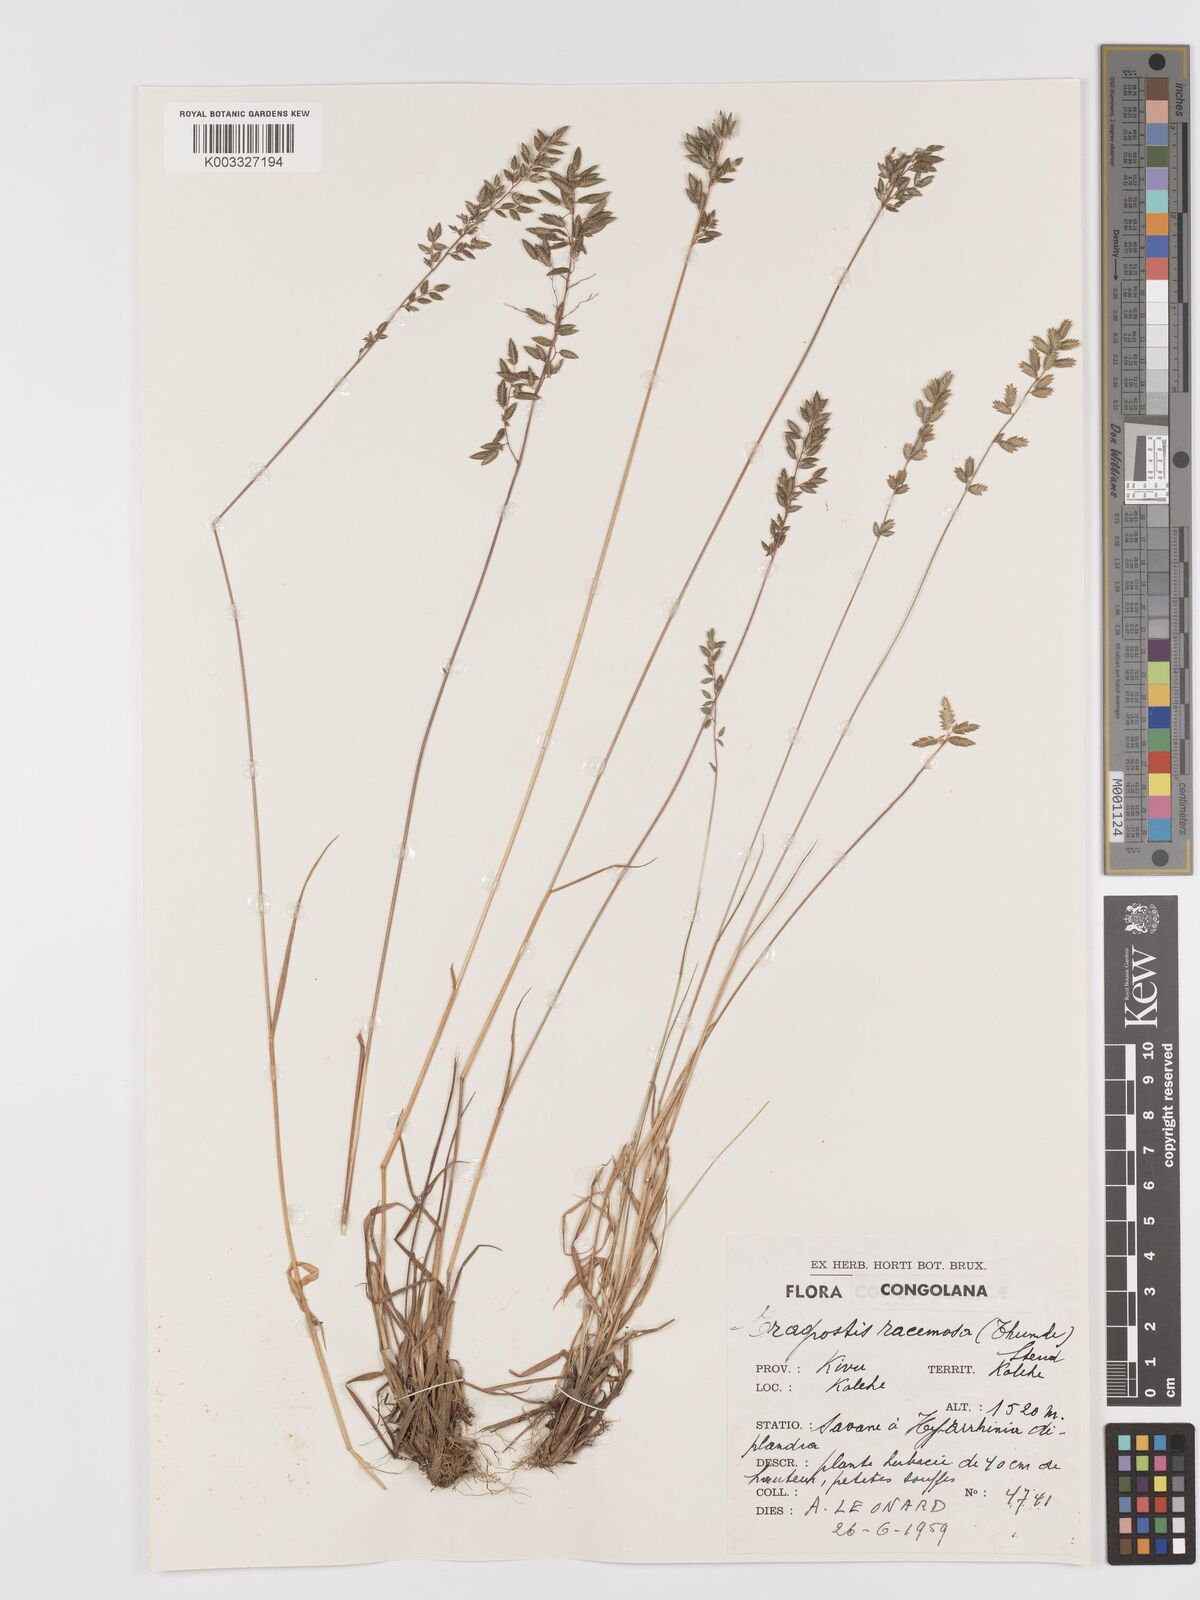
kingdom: Plantae
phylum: Tracheophyta
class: Liliopsida
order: Poales
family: Poaceae
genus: Eragrostis
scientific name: Eragrostis racemosa
